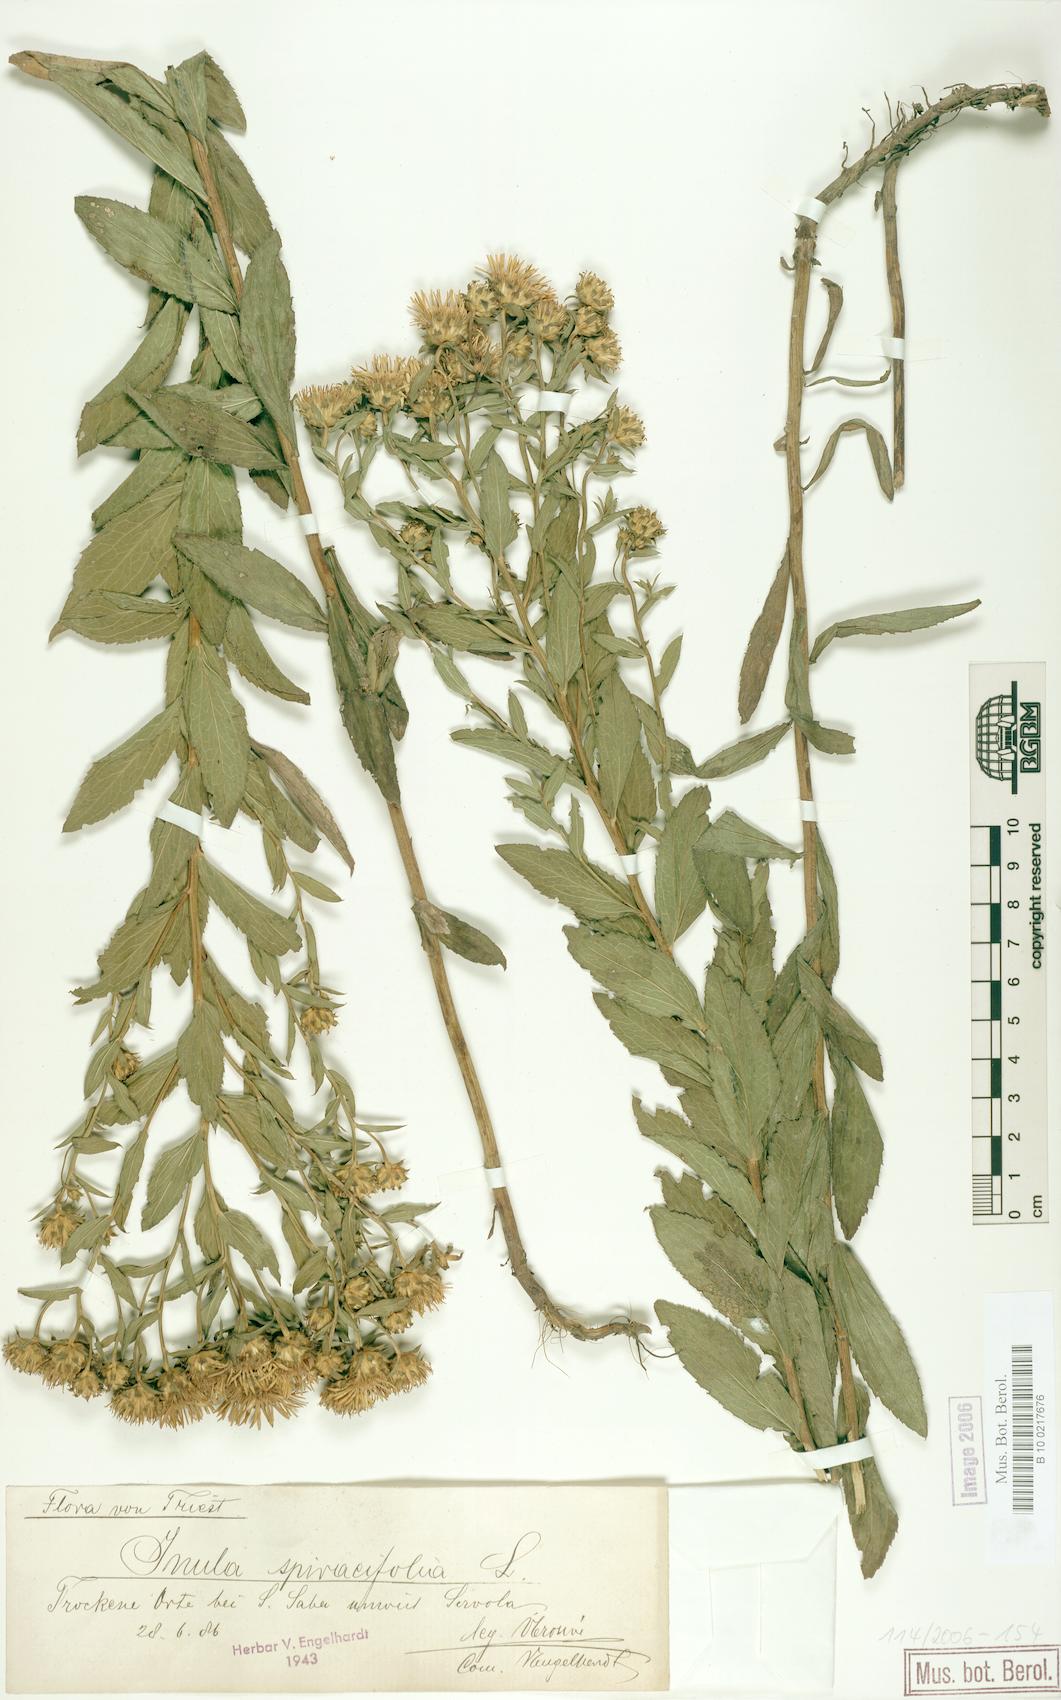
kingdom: Plantae
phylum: Tracheophyta
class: Magnoliopsida
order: Asterales
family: Asteraceae
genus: Pentanema
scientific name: Pentanema spiraeifolium
